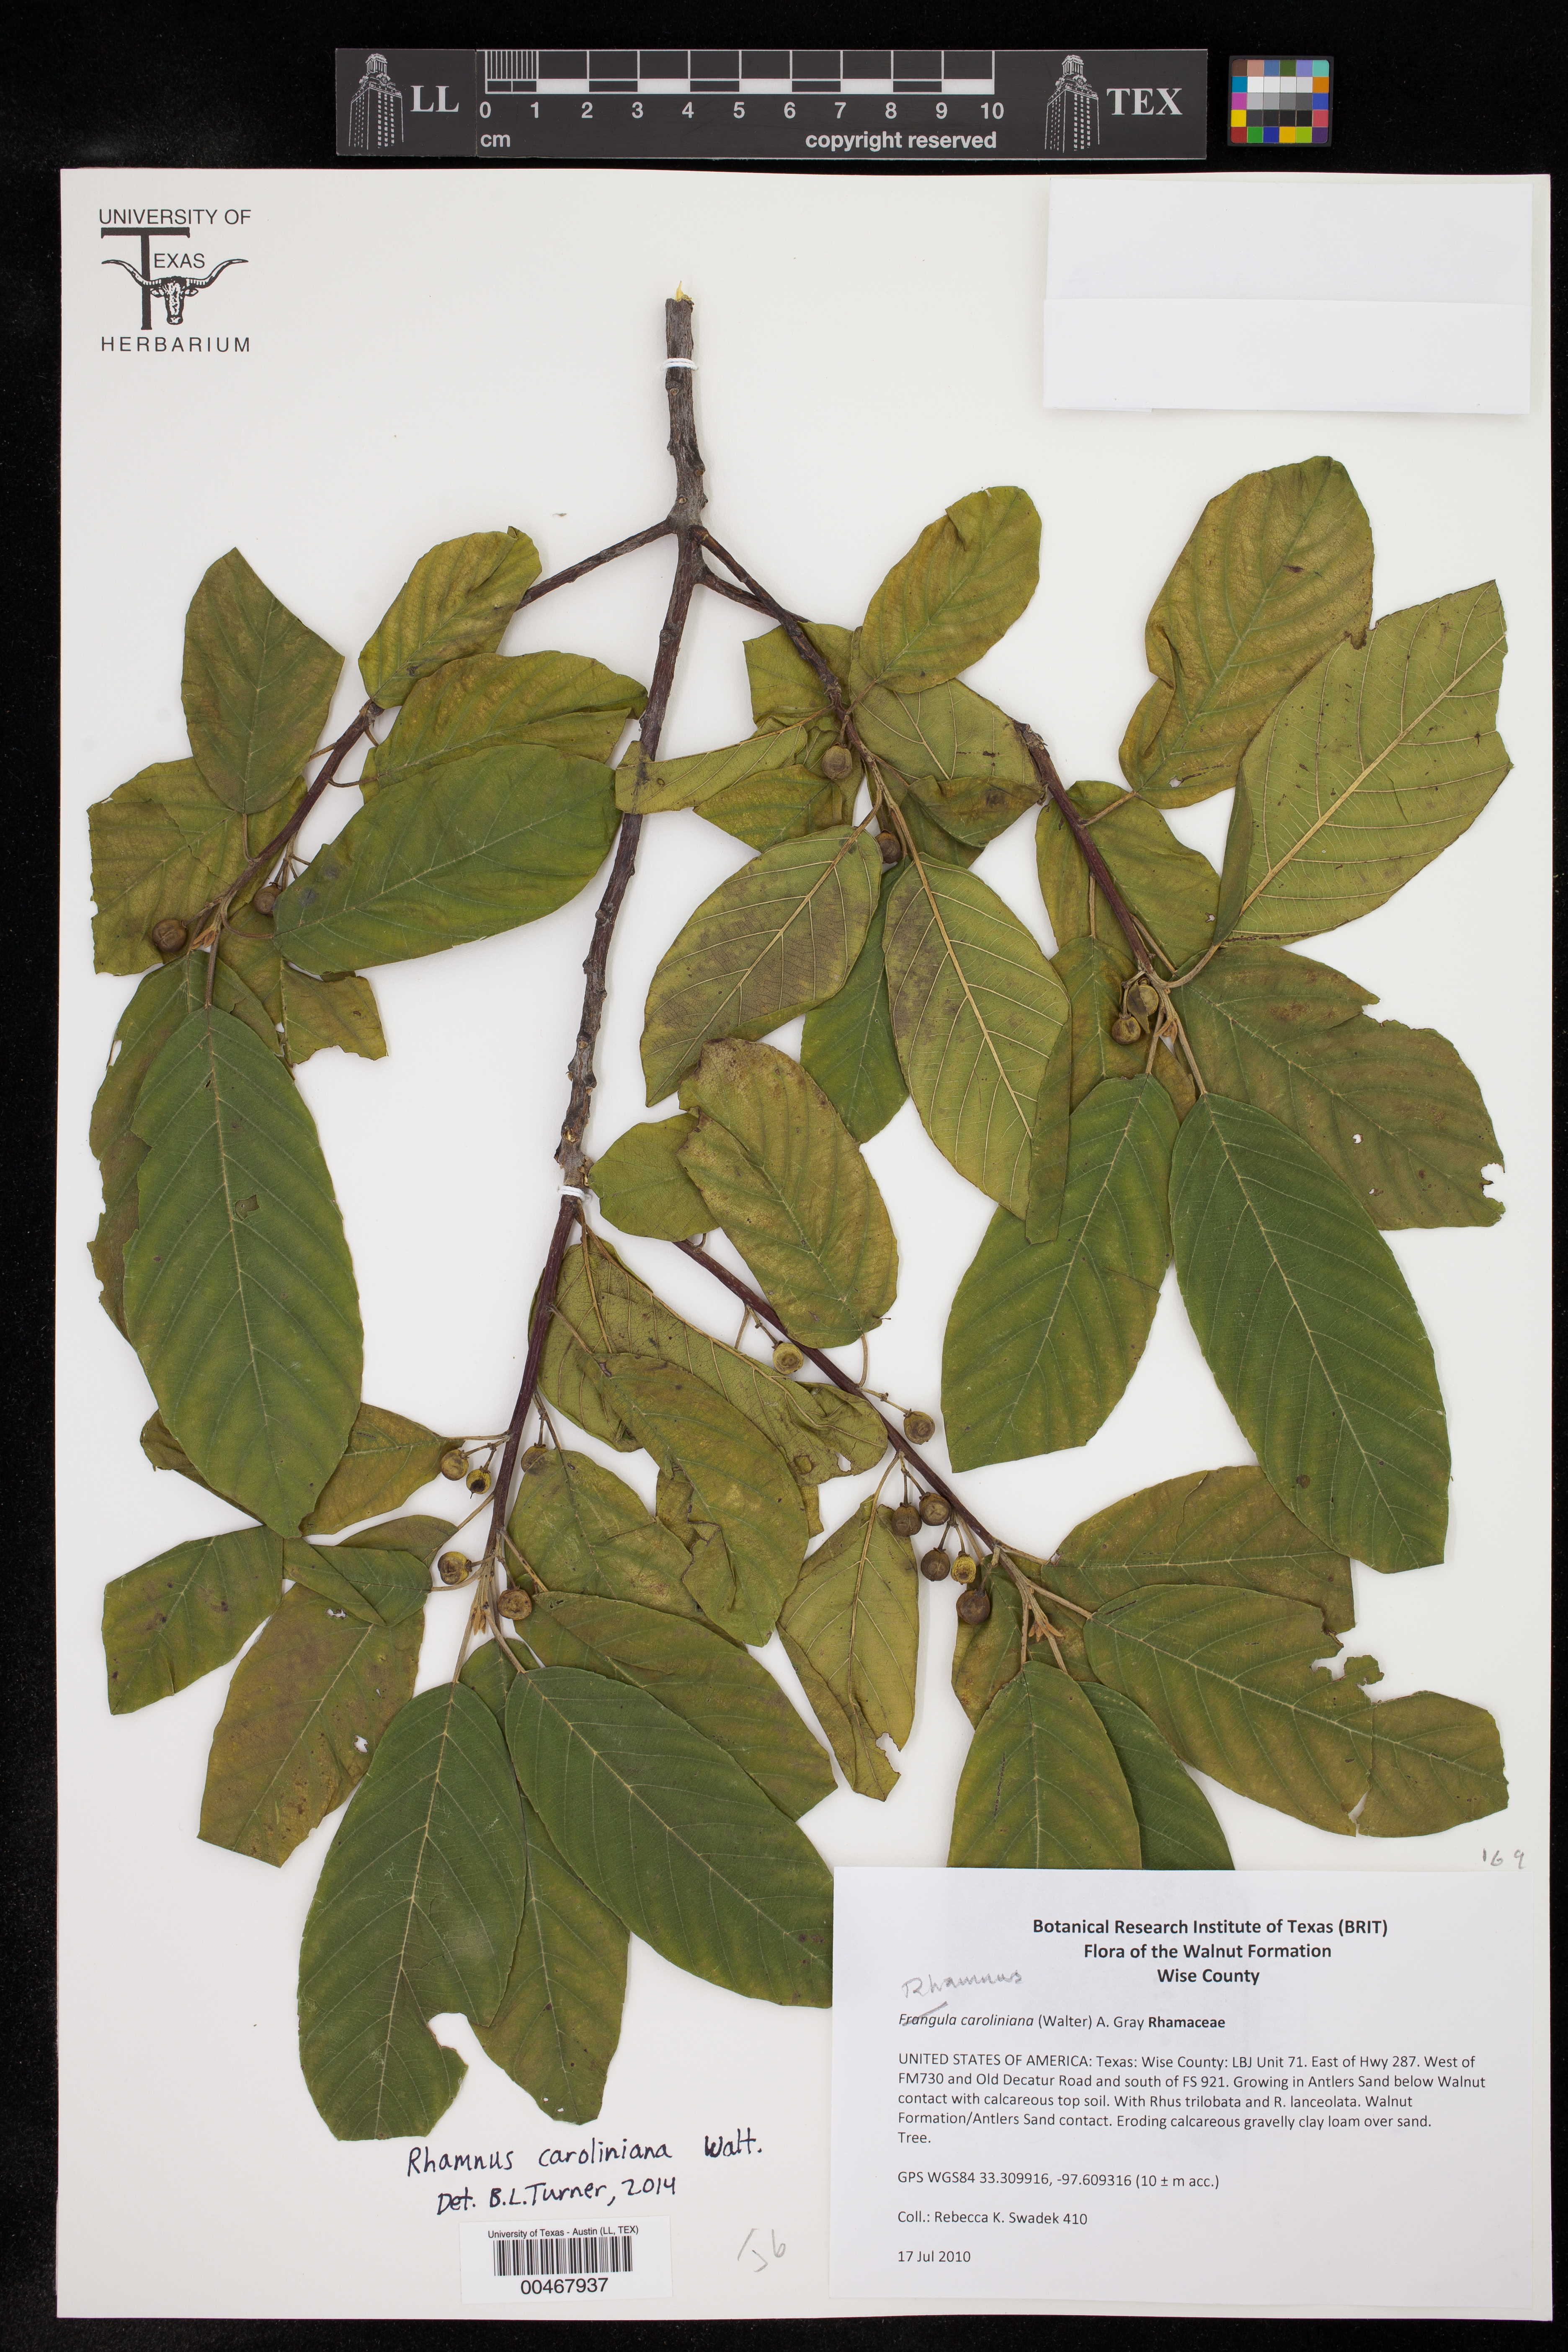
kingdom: Plantae
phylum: Tracheophyta
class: Magnoliopsida
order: Rosales
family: Rhamnaceae
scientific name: Rhamnaceae
